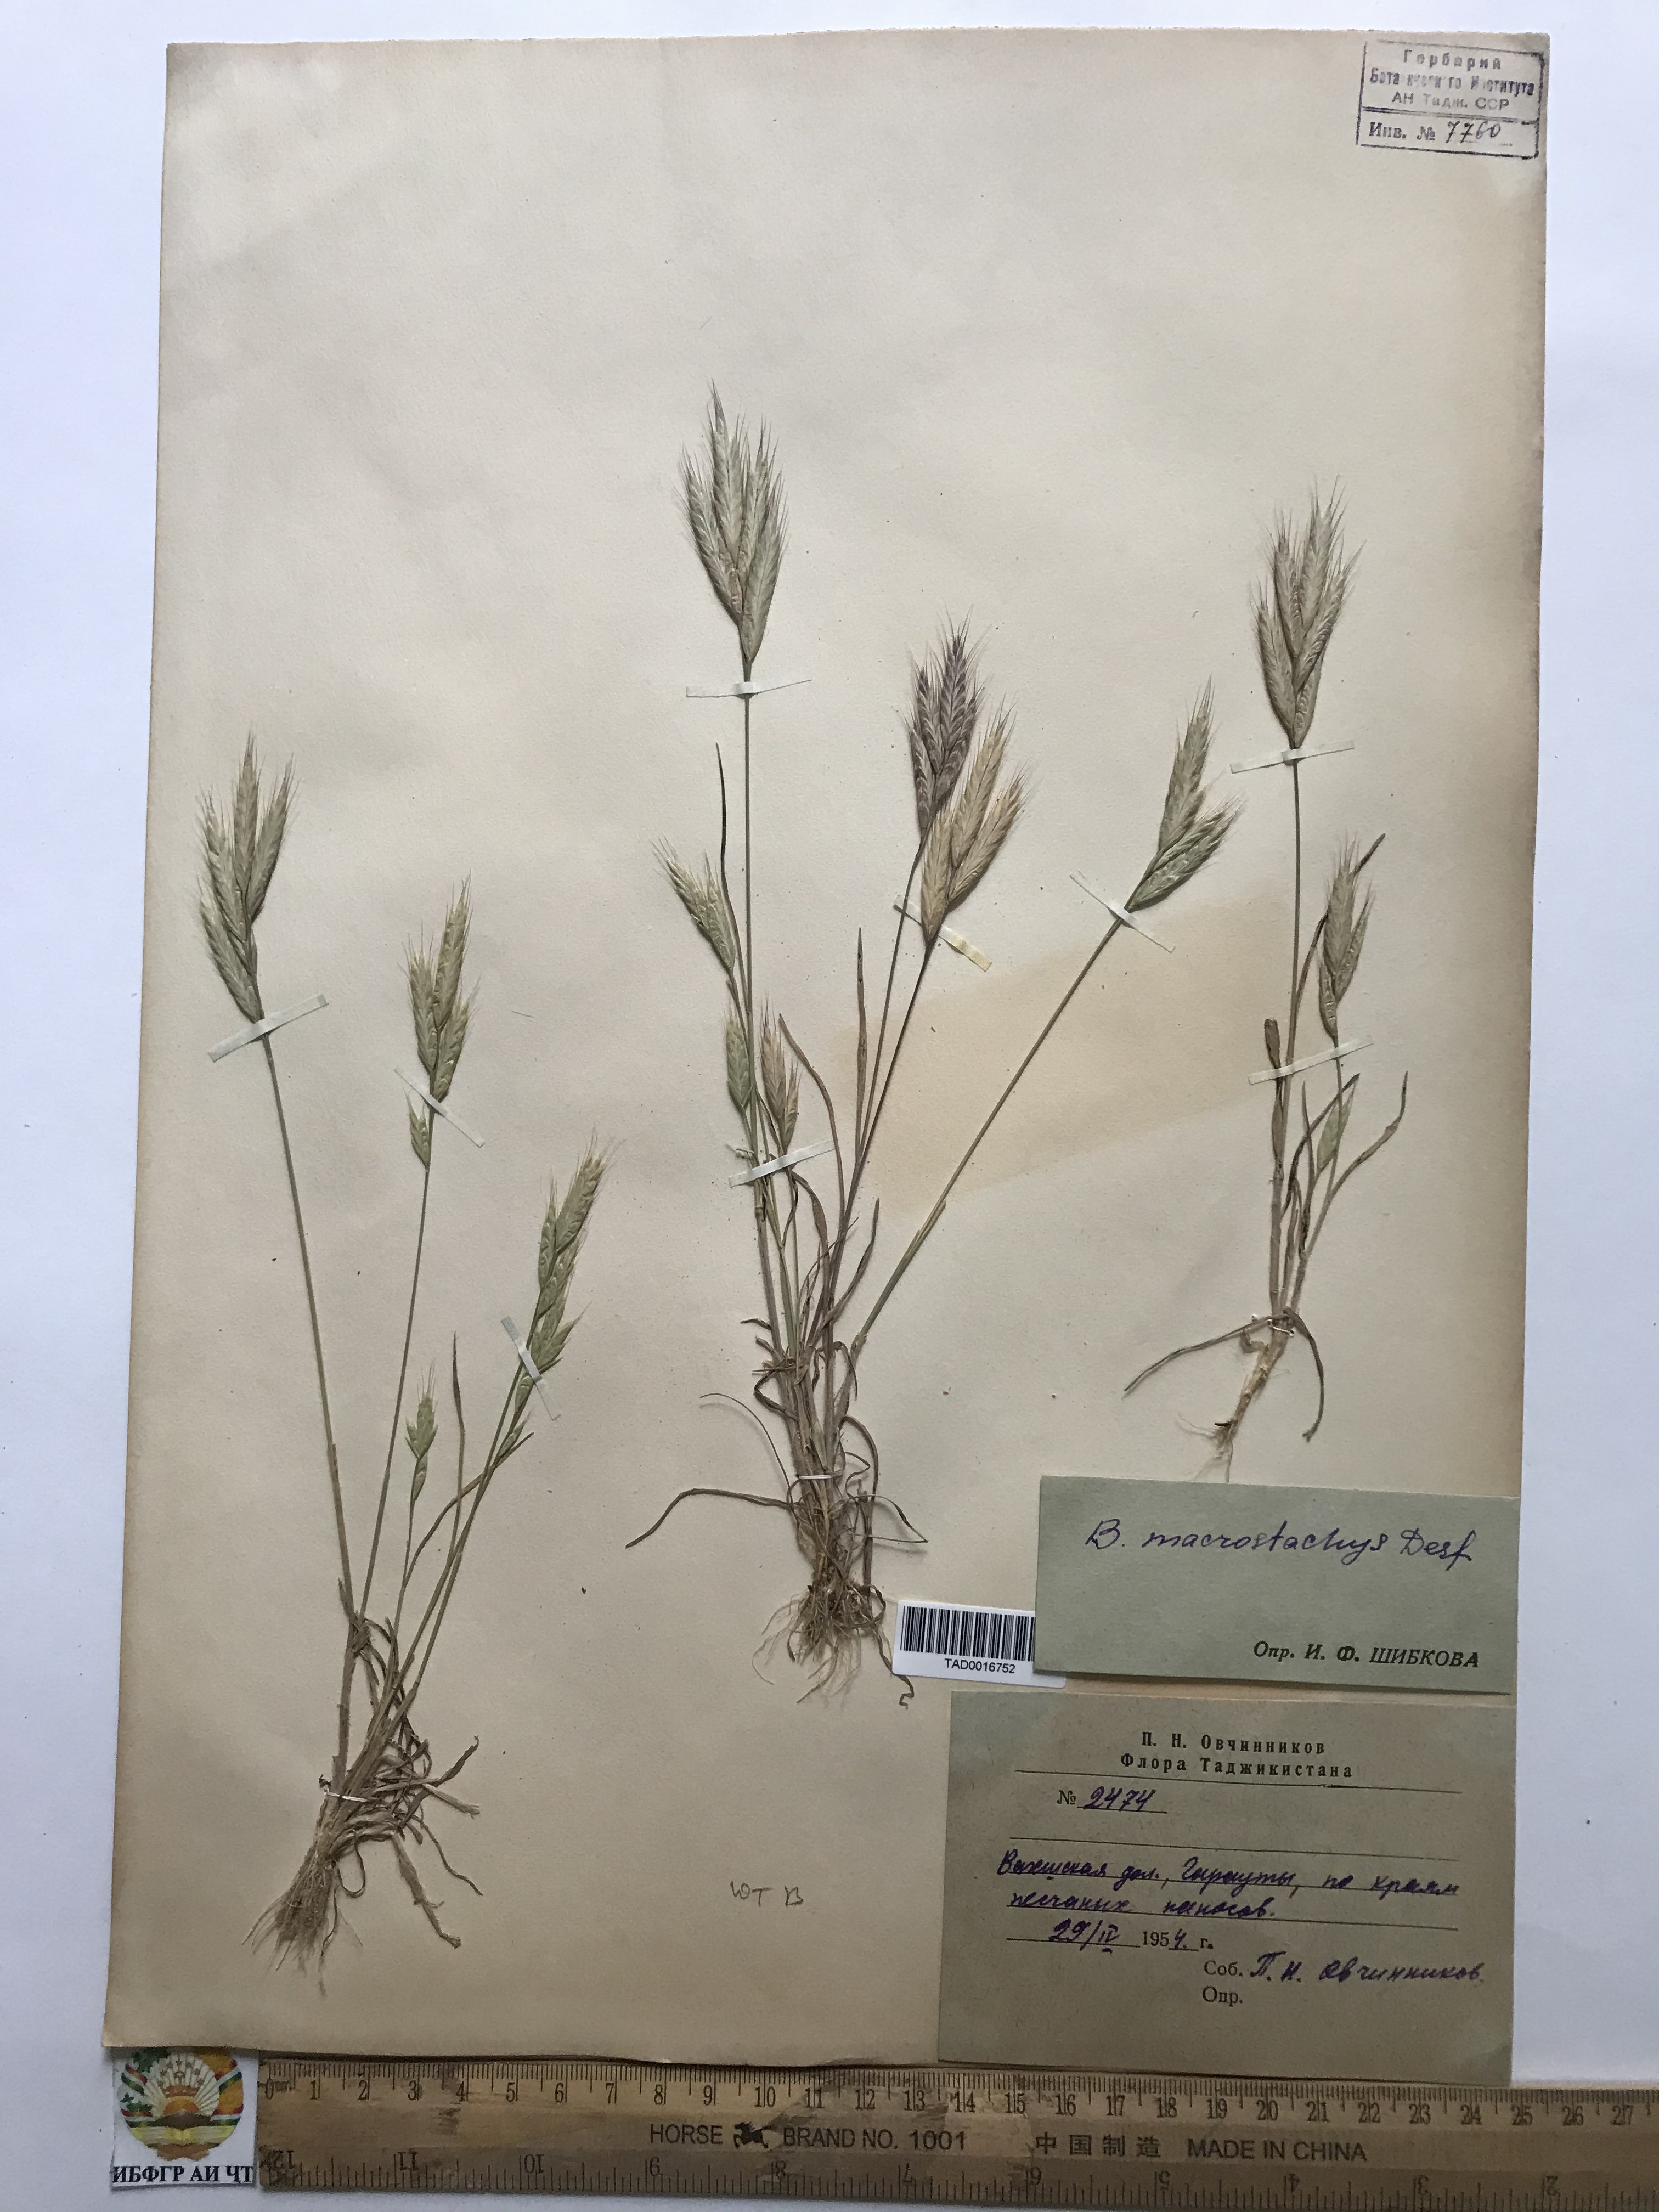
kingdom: Plantae
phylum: Tracheophyta
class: Liliopsida
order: Poales
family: Poaceae
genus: Bromus
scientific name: Bromus lanceolatus
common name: Mediterranean brome
